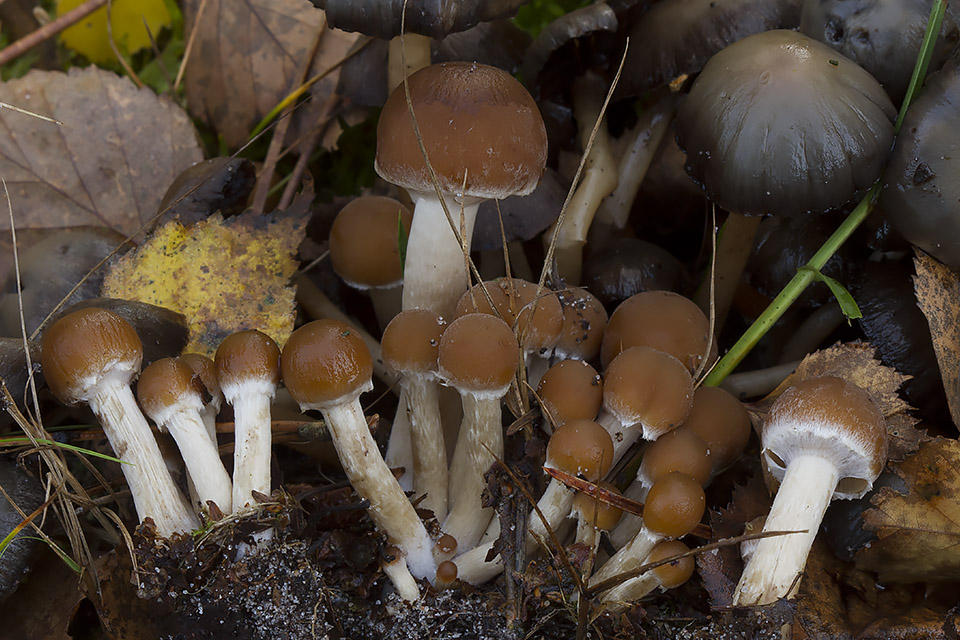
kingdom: Fungi
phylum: Basidiomycota
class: Agaricomycetes
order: Agaricales
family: Psathyrellaceae
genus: Psathyrella
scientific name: Psathyrella fragrans
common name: duft-mørkhat
